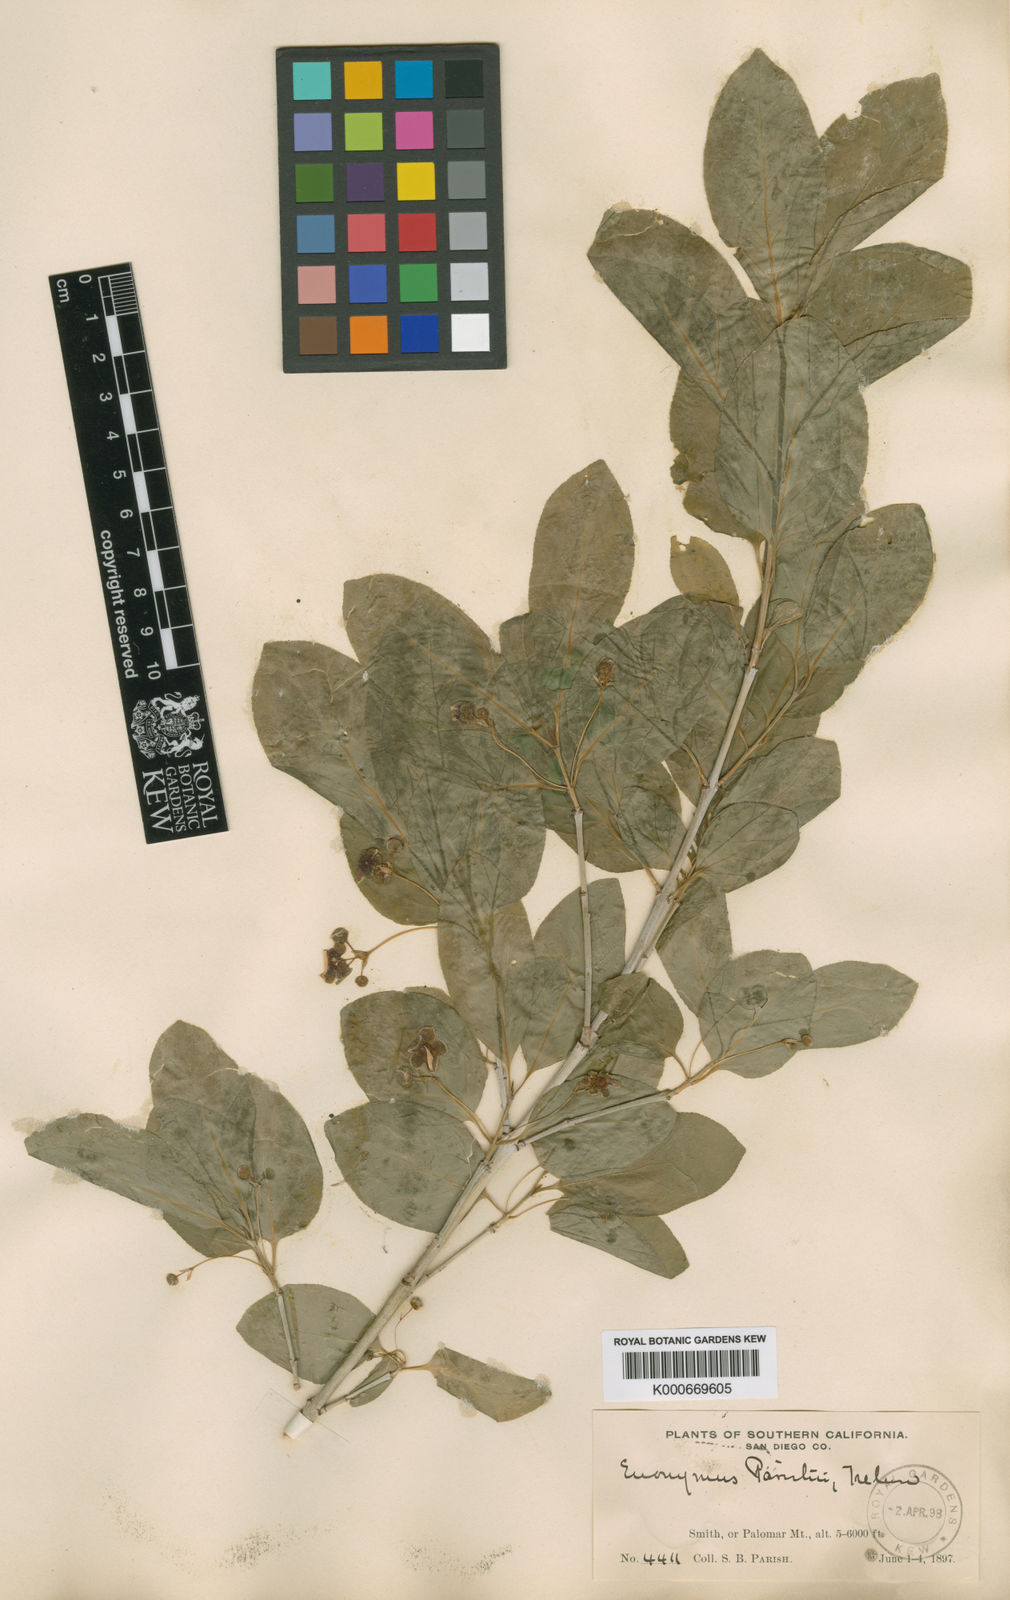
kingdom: Plantae
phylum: Tracheophyta
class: Magnoliopsida
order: Celastrales
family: Celastraceae
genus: Euonymus
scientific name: Euonymus occidentalis
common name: Western burningbush
